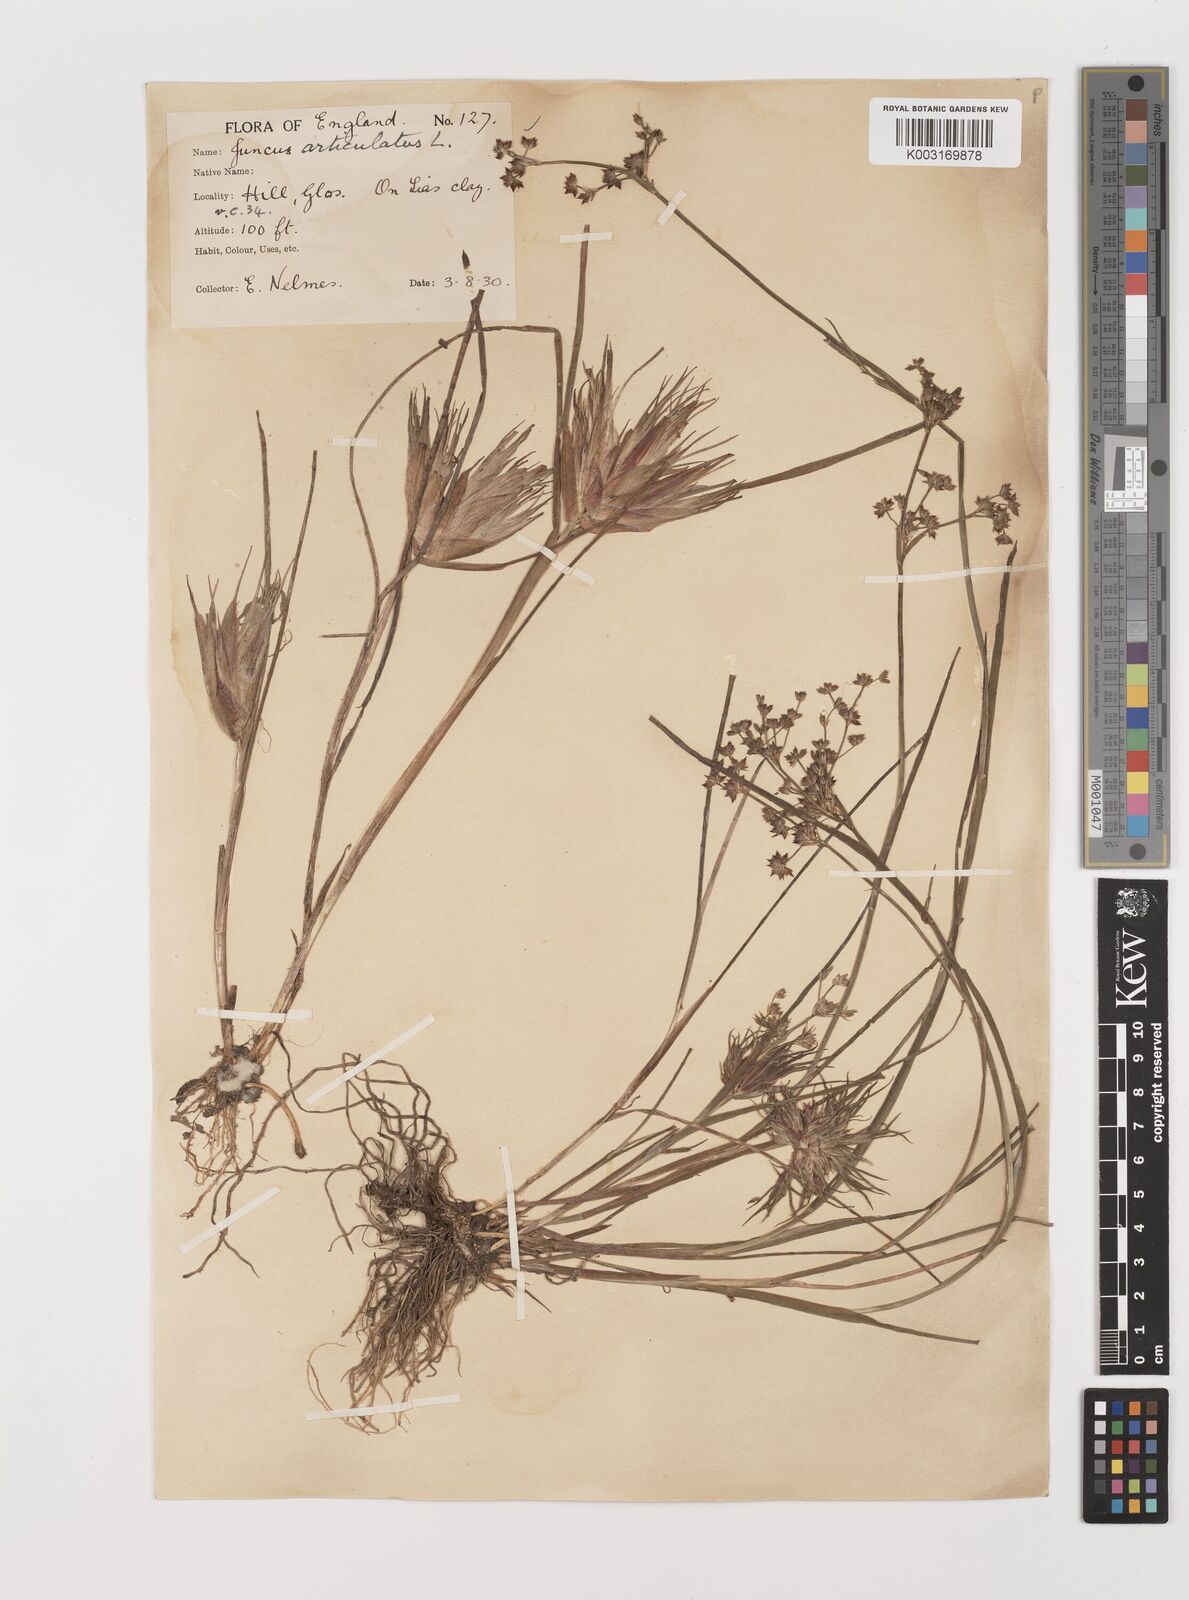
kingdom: Plantae
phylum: Tracheophyta
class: Liliopsida
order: Poales
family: Juncaceae
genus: Juncus
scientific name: Juncus articulatus
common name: Jointed rush
